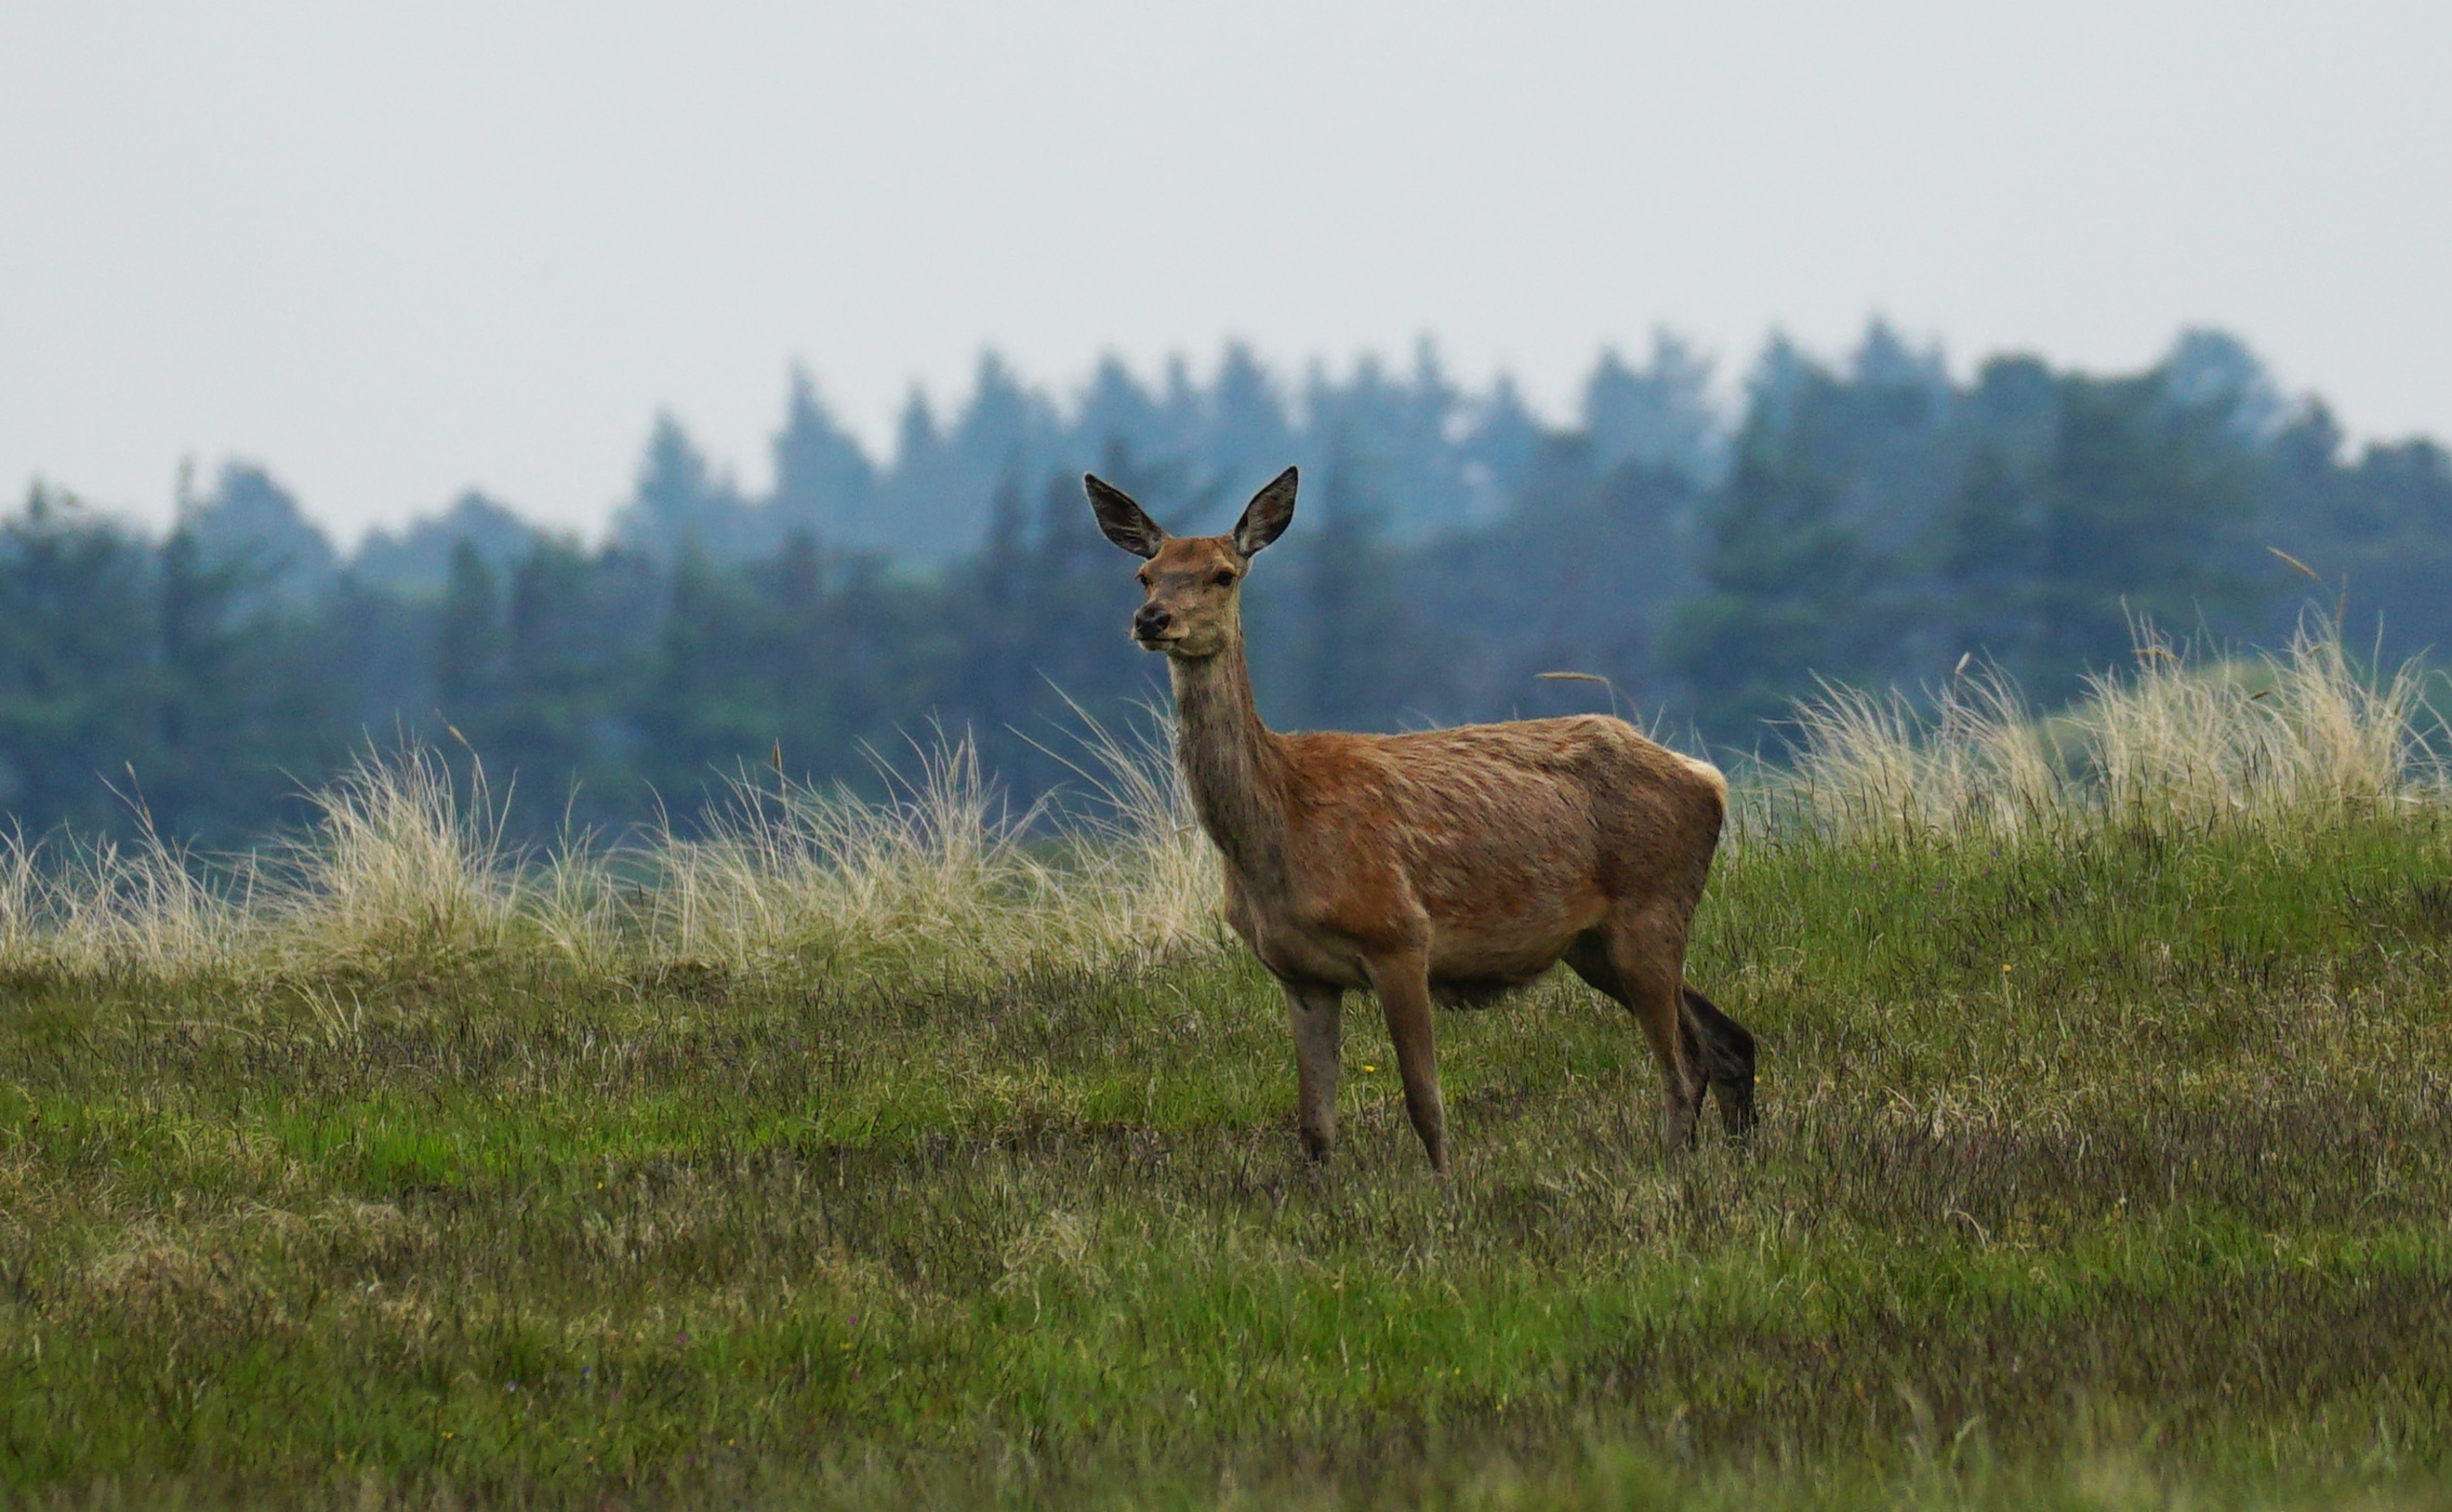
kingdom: Animalia
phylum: Chordata
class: Mammalia
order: Artiodactyla
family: Cervidae
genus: Cervus
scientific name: Cervus elaphus
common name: Krondyr
